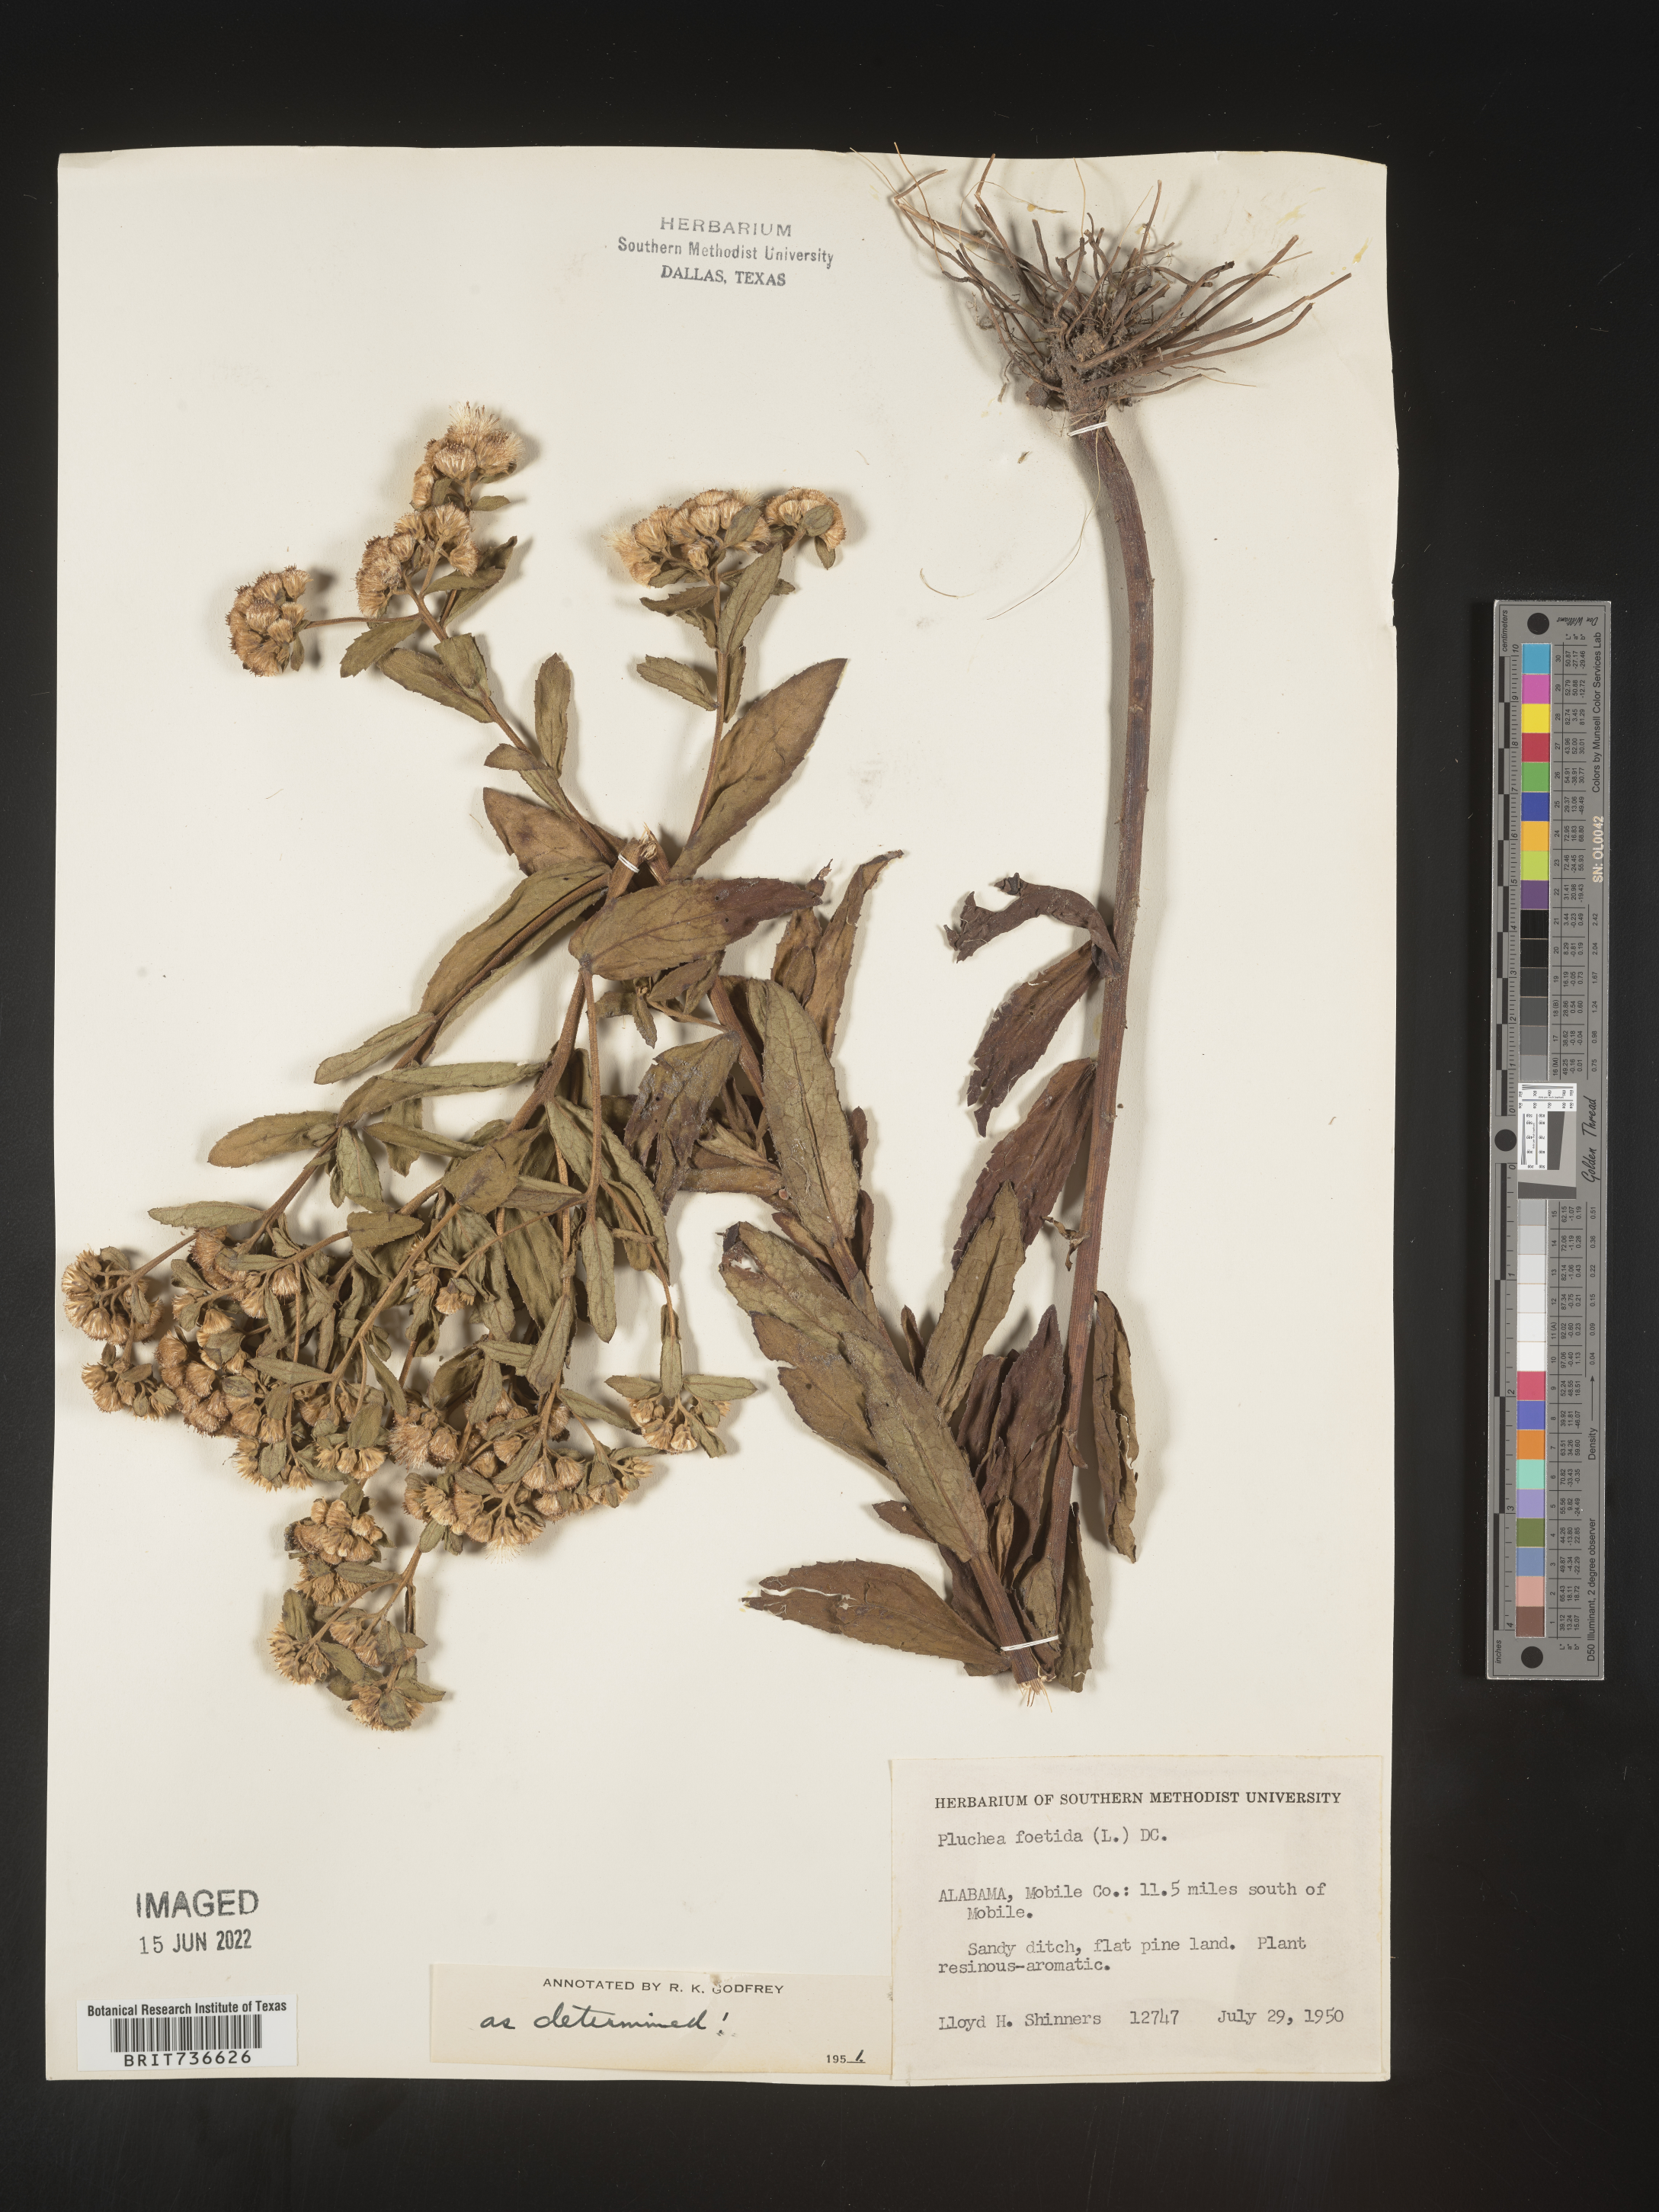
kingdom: Plantae
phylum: Tracheophyta
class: Magnoliopsida
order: Asterales
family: Asteraceae
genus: Pluchea
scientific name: Pluchea foetida
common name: Stinking camphorweed
